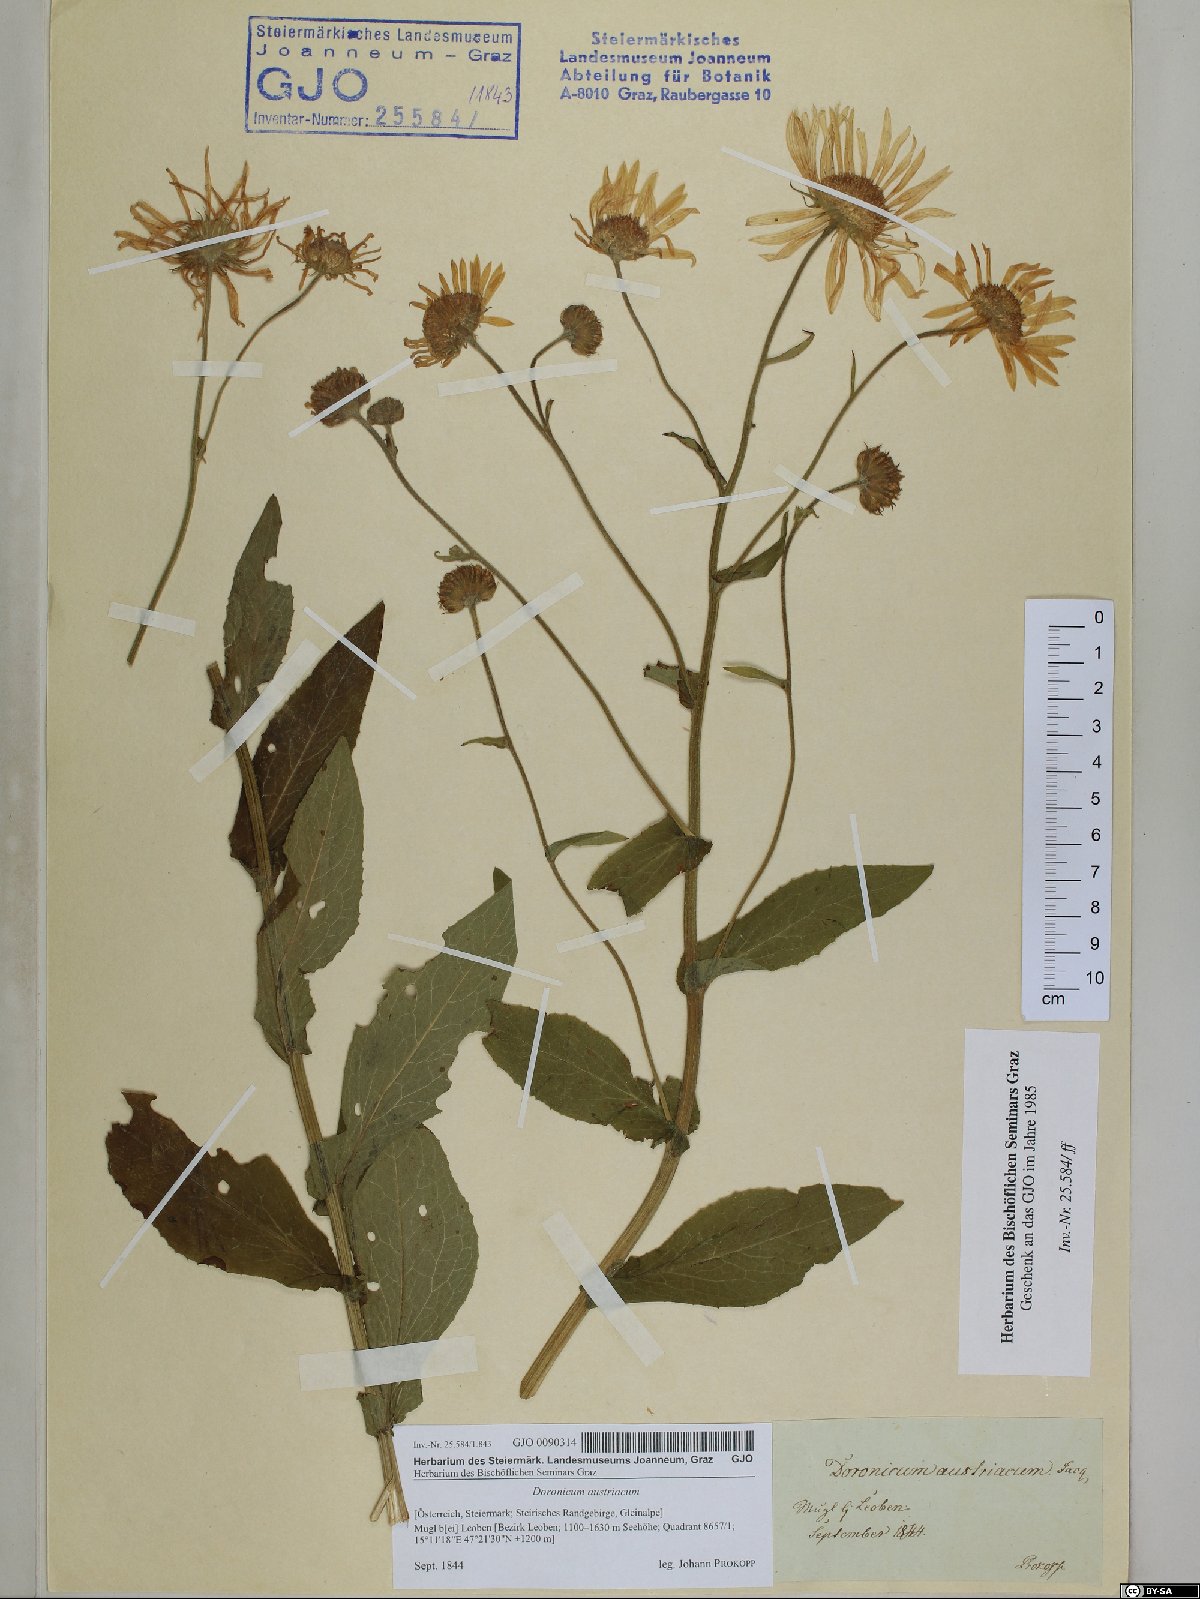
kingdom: Plantae
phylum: Tracheophyta
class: Magnoliopsida
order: Asterales
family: Asteraceae
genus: Doronicum
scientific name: Doronicum austriacum
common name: Austrian leopard's-bane
